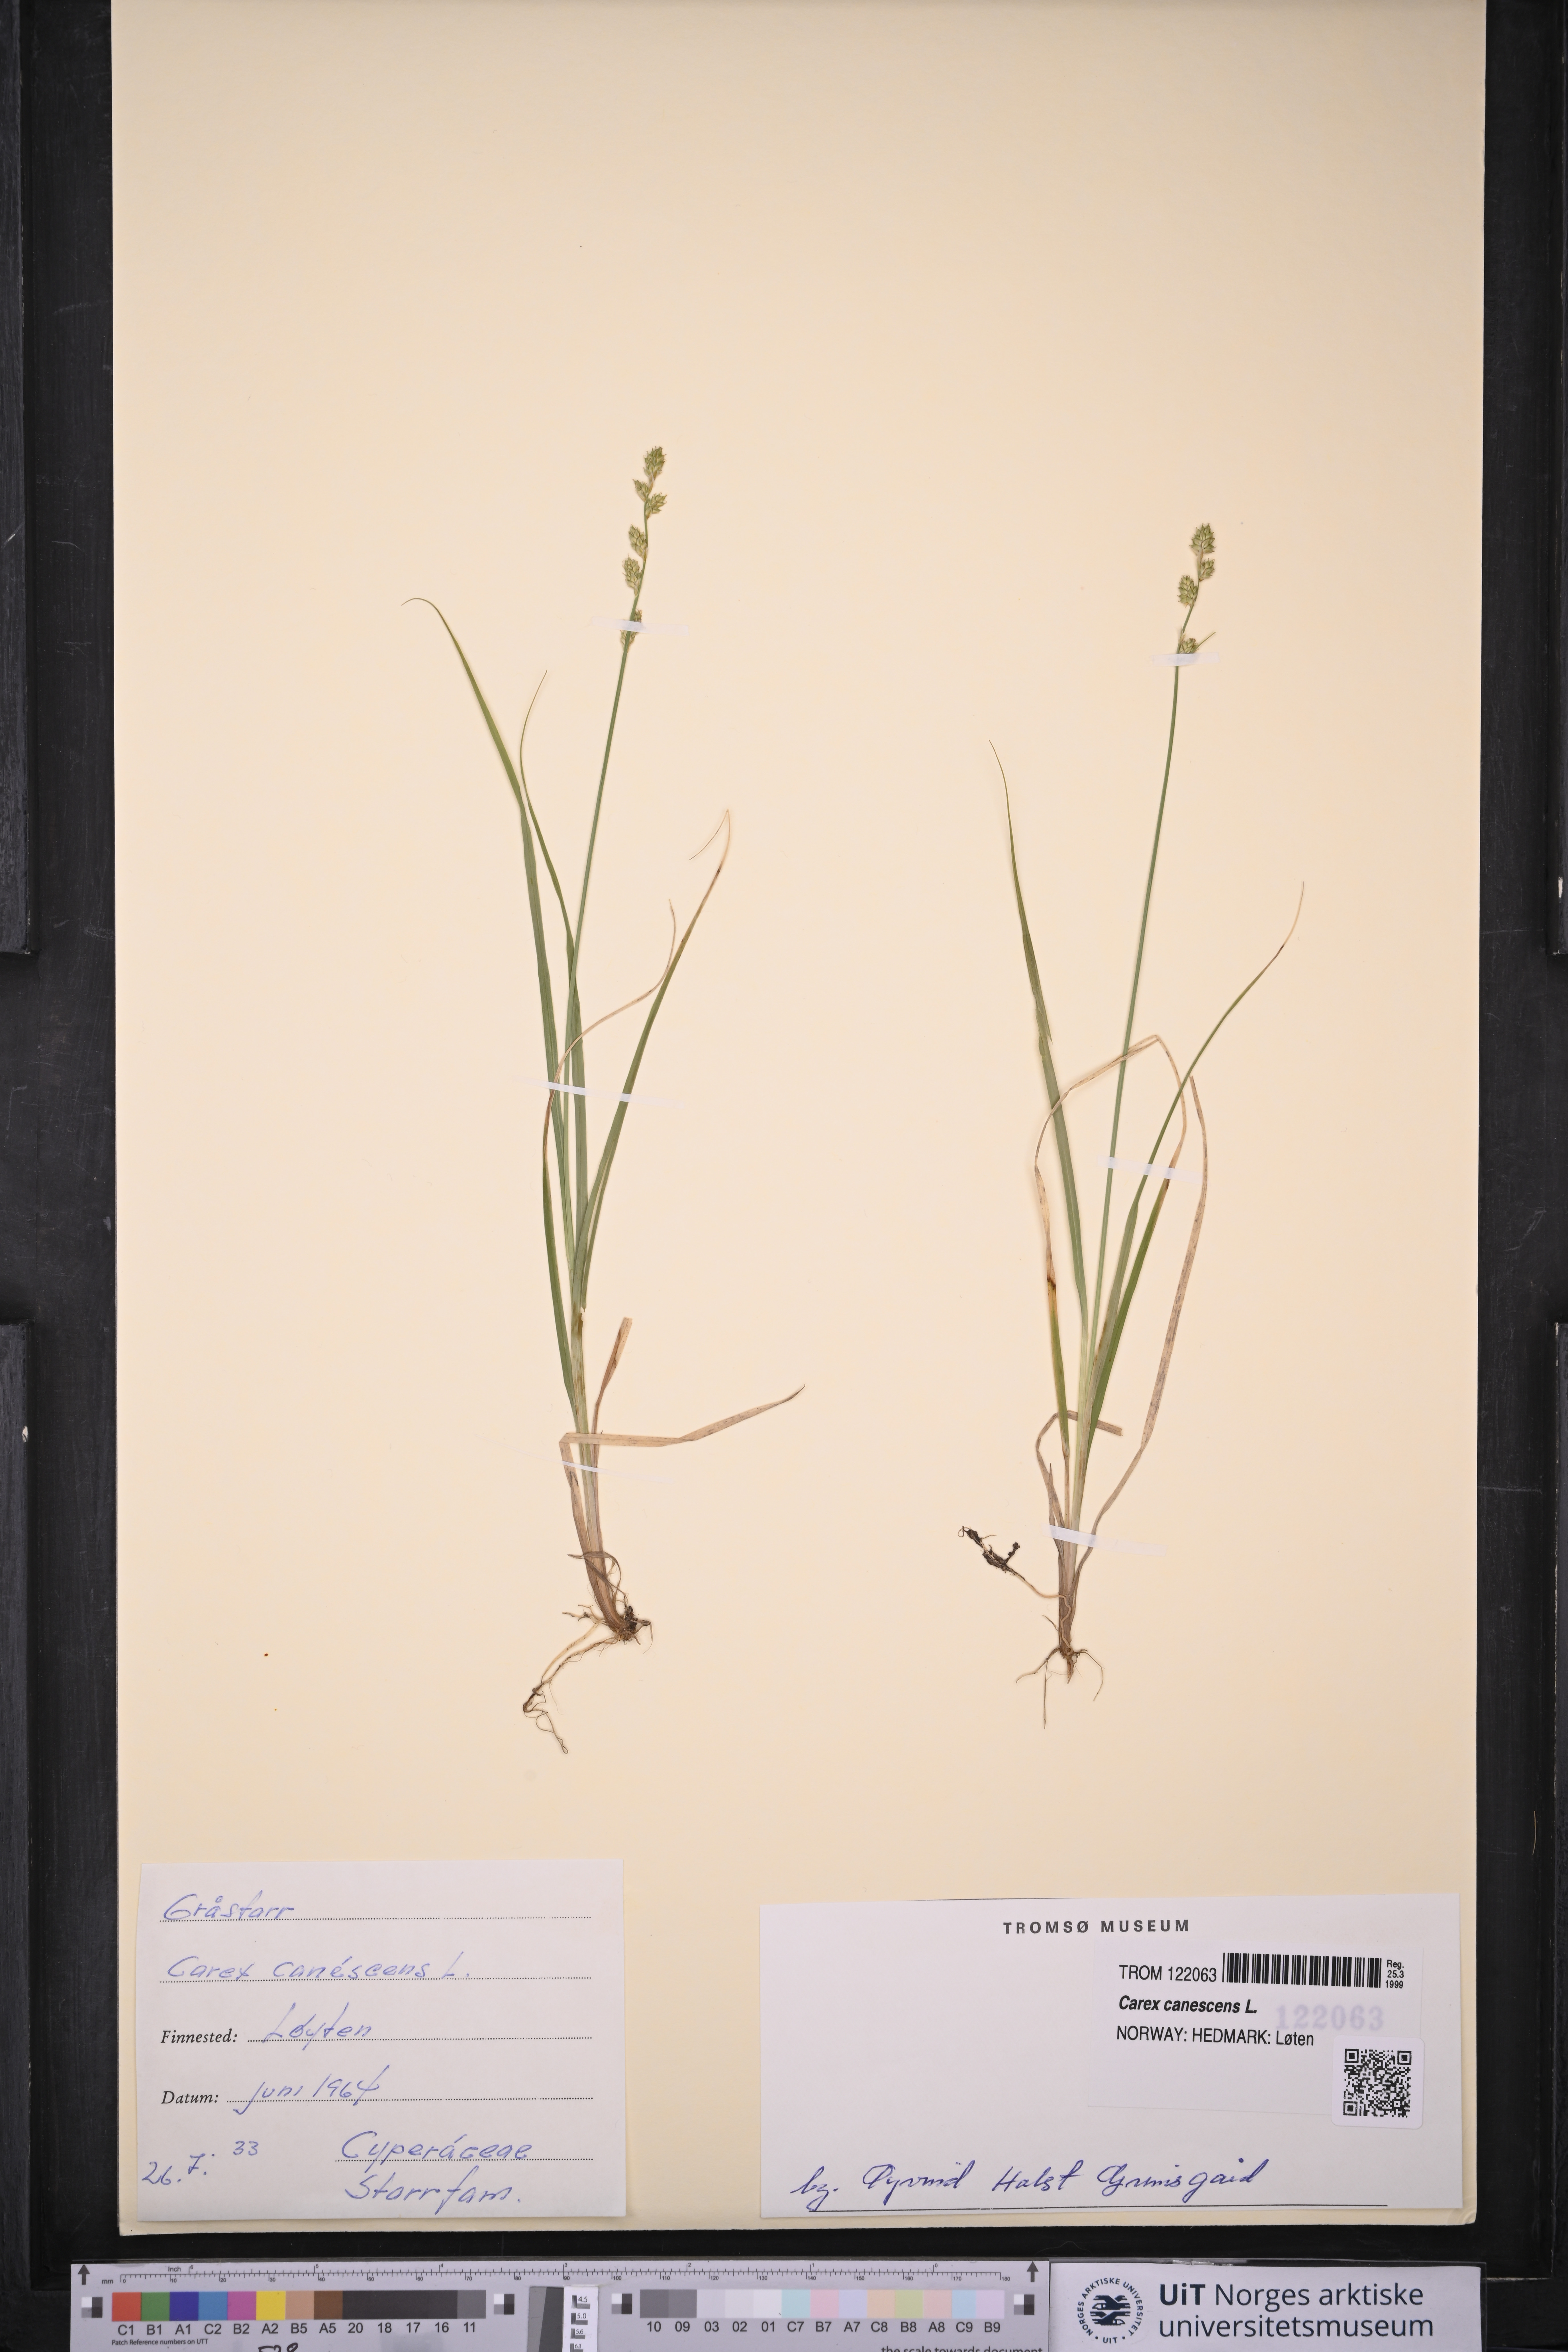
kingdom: Plantae
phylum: Tracheophyta
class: Liliopsida
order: Poales
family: Cyperaceae
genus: Carex
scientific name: Carex canescens
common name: White sedge
